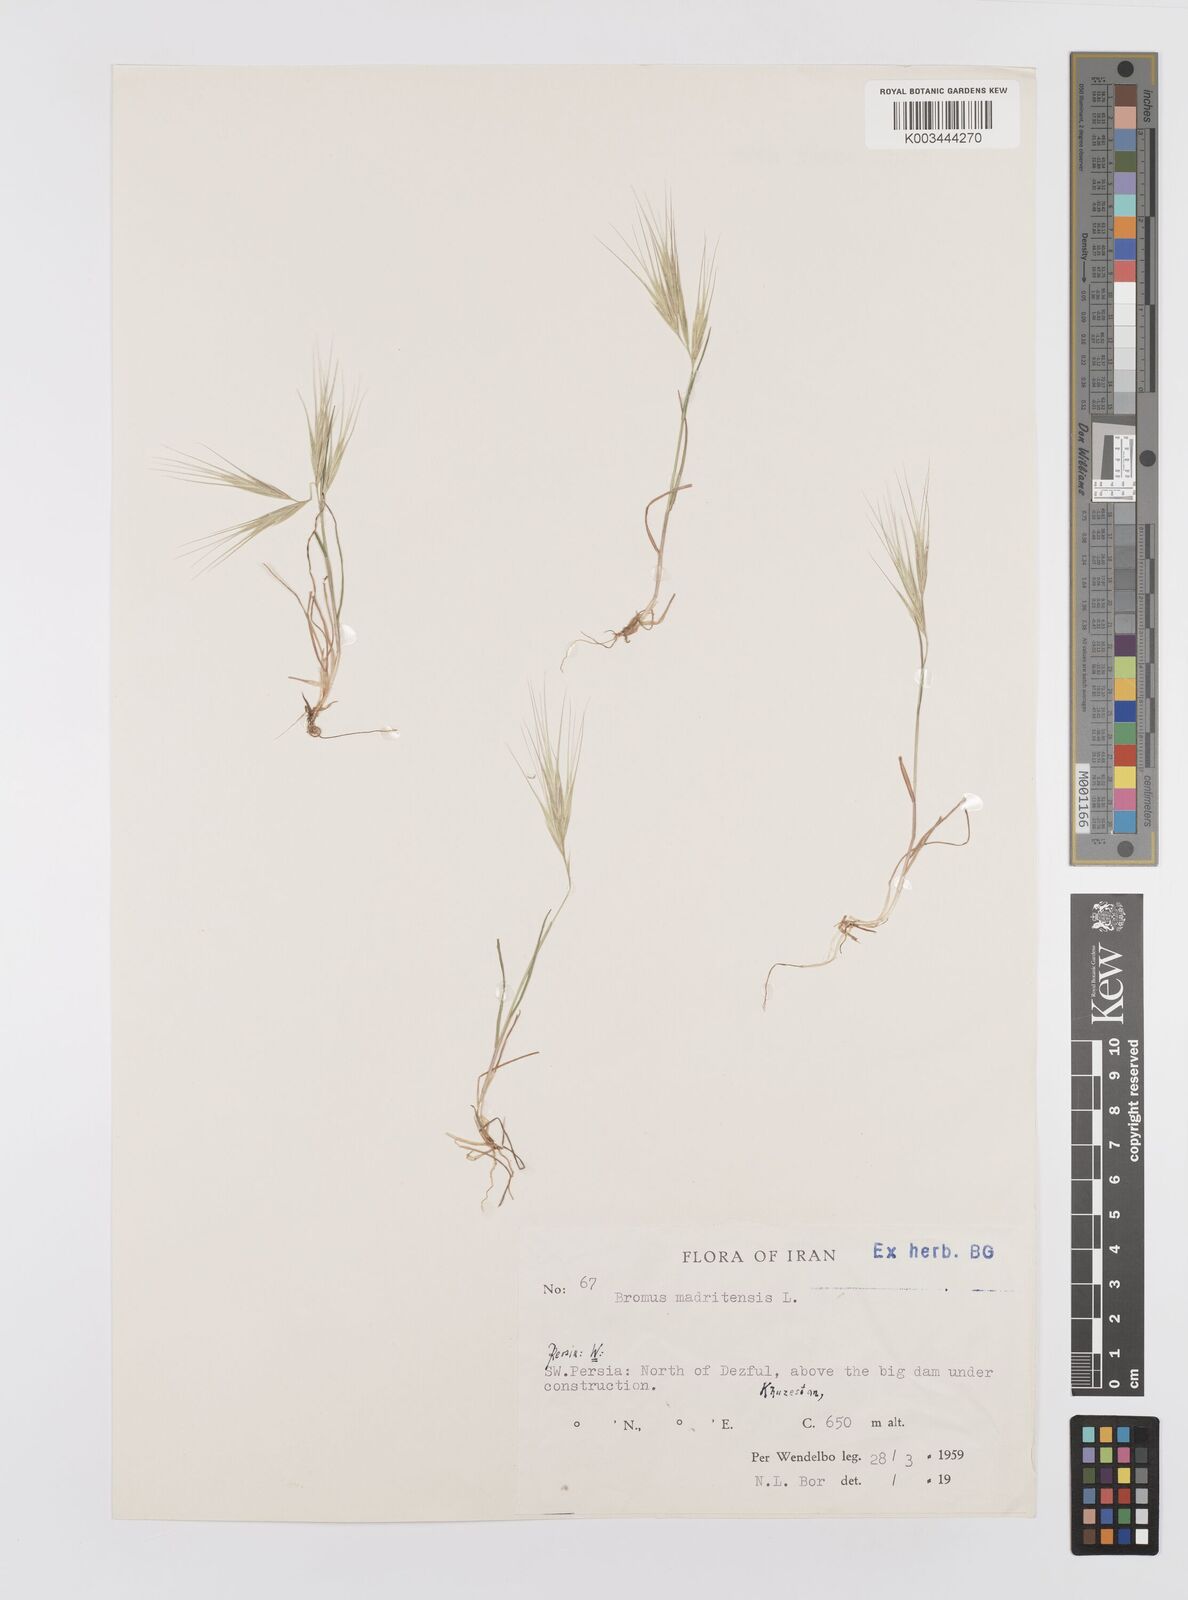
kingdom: Plantae
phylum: Tracheophyta
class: Liliopsida
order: Poales
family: Poaceae
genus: Bromus
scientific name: Bromus madritensis
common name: Compact brome
